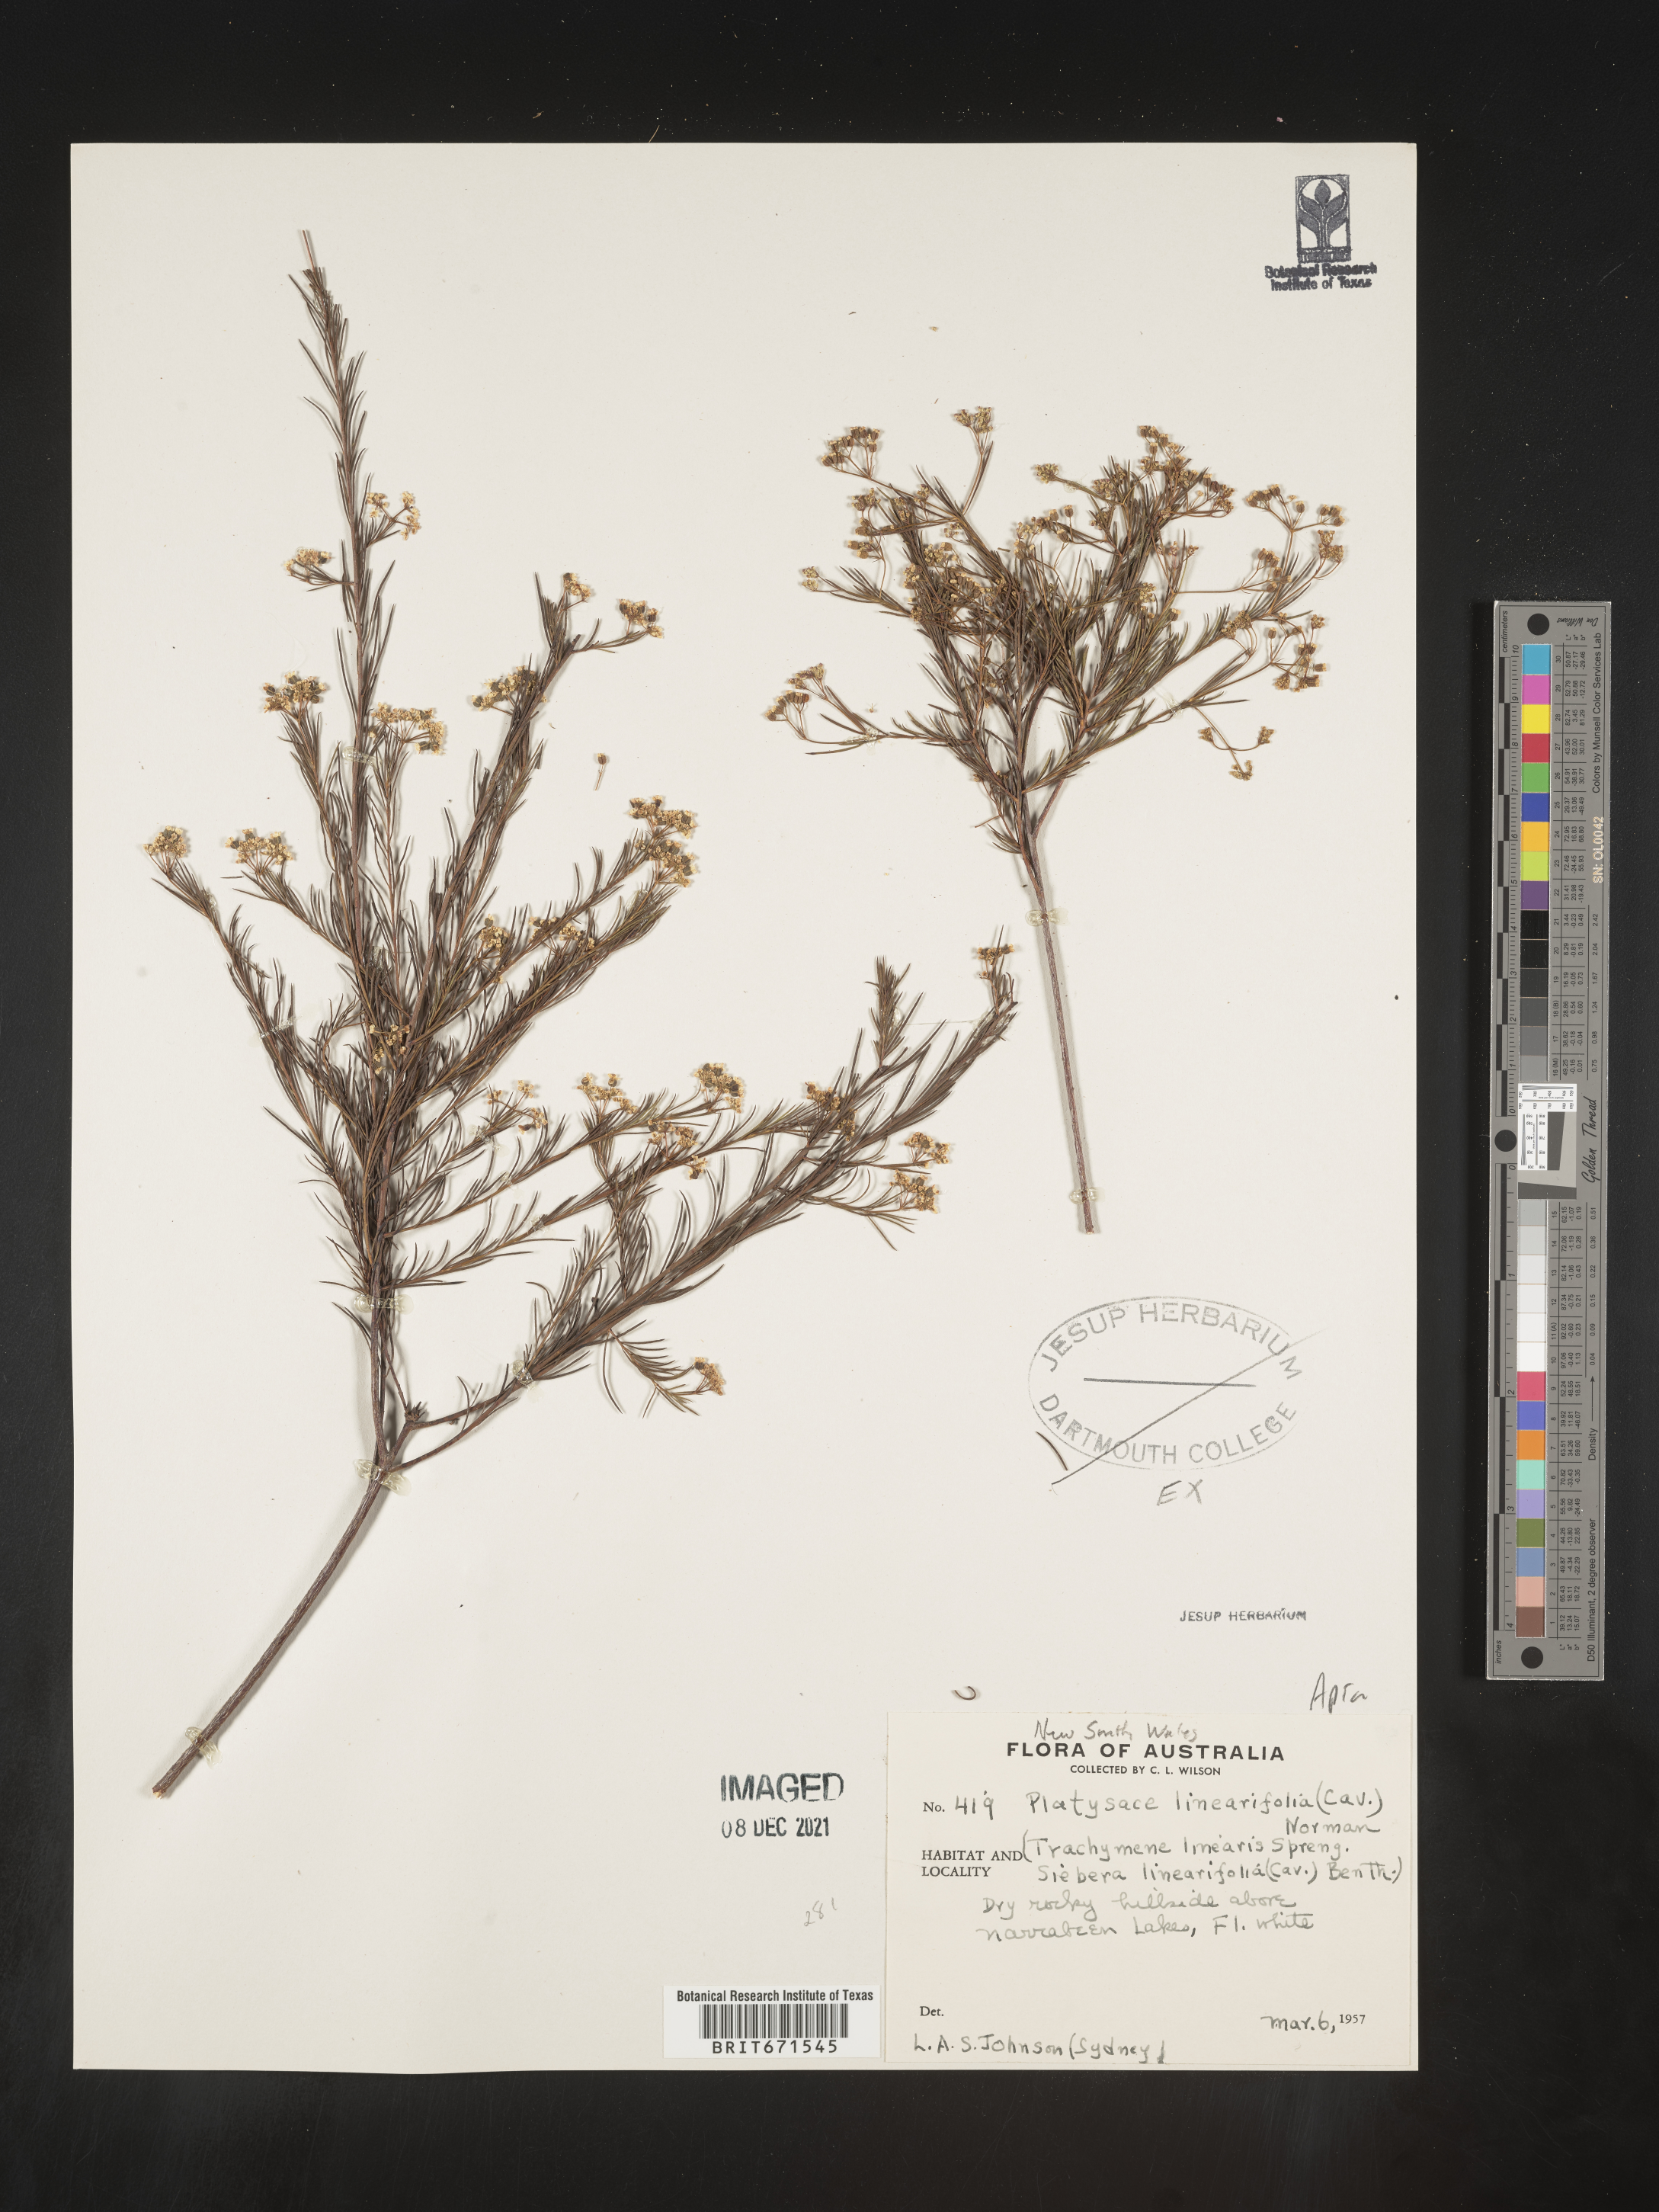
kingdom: Plantae
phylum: Tracheophyta
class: Magnoliopsida
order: Apiales
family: Apiaceae
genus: Platysace
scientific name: Platysace
